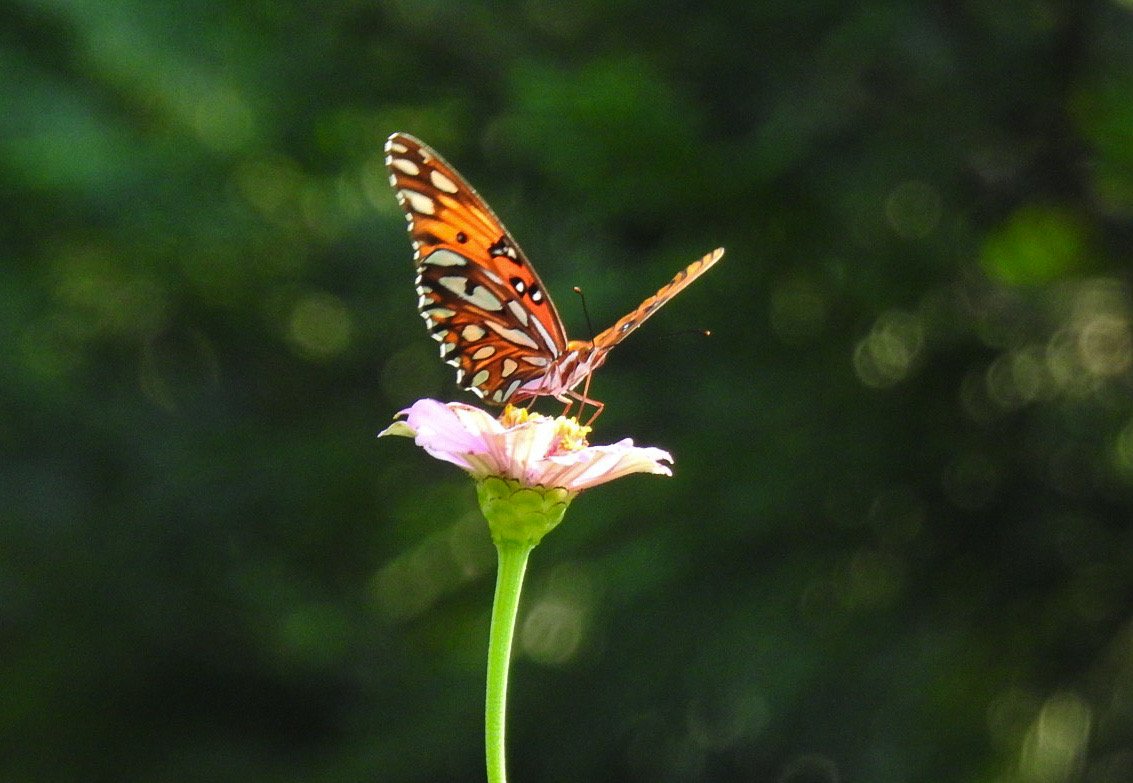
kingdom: Animalia
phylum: Arthropoda
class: Insecta
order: Lepidoptera
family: Nymphalidae
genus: Dione
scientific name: Dione vanillae
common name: Gulf Fritillary
